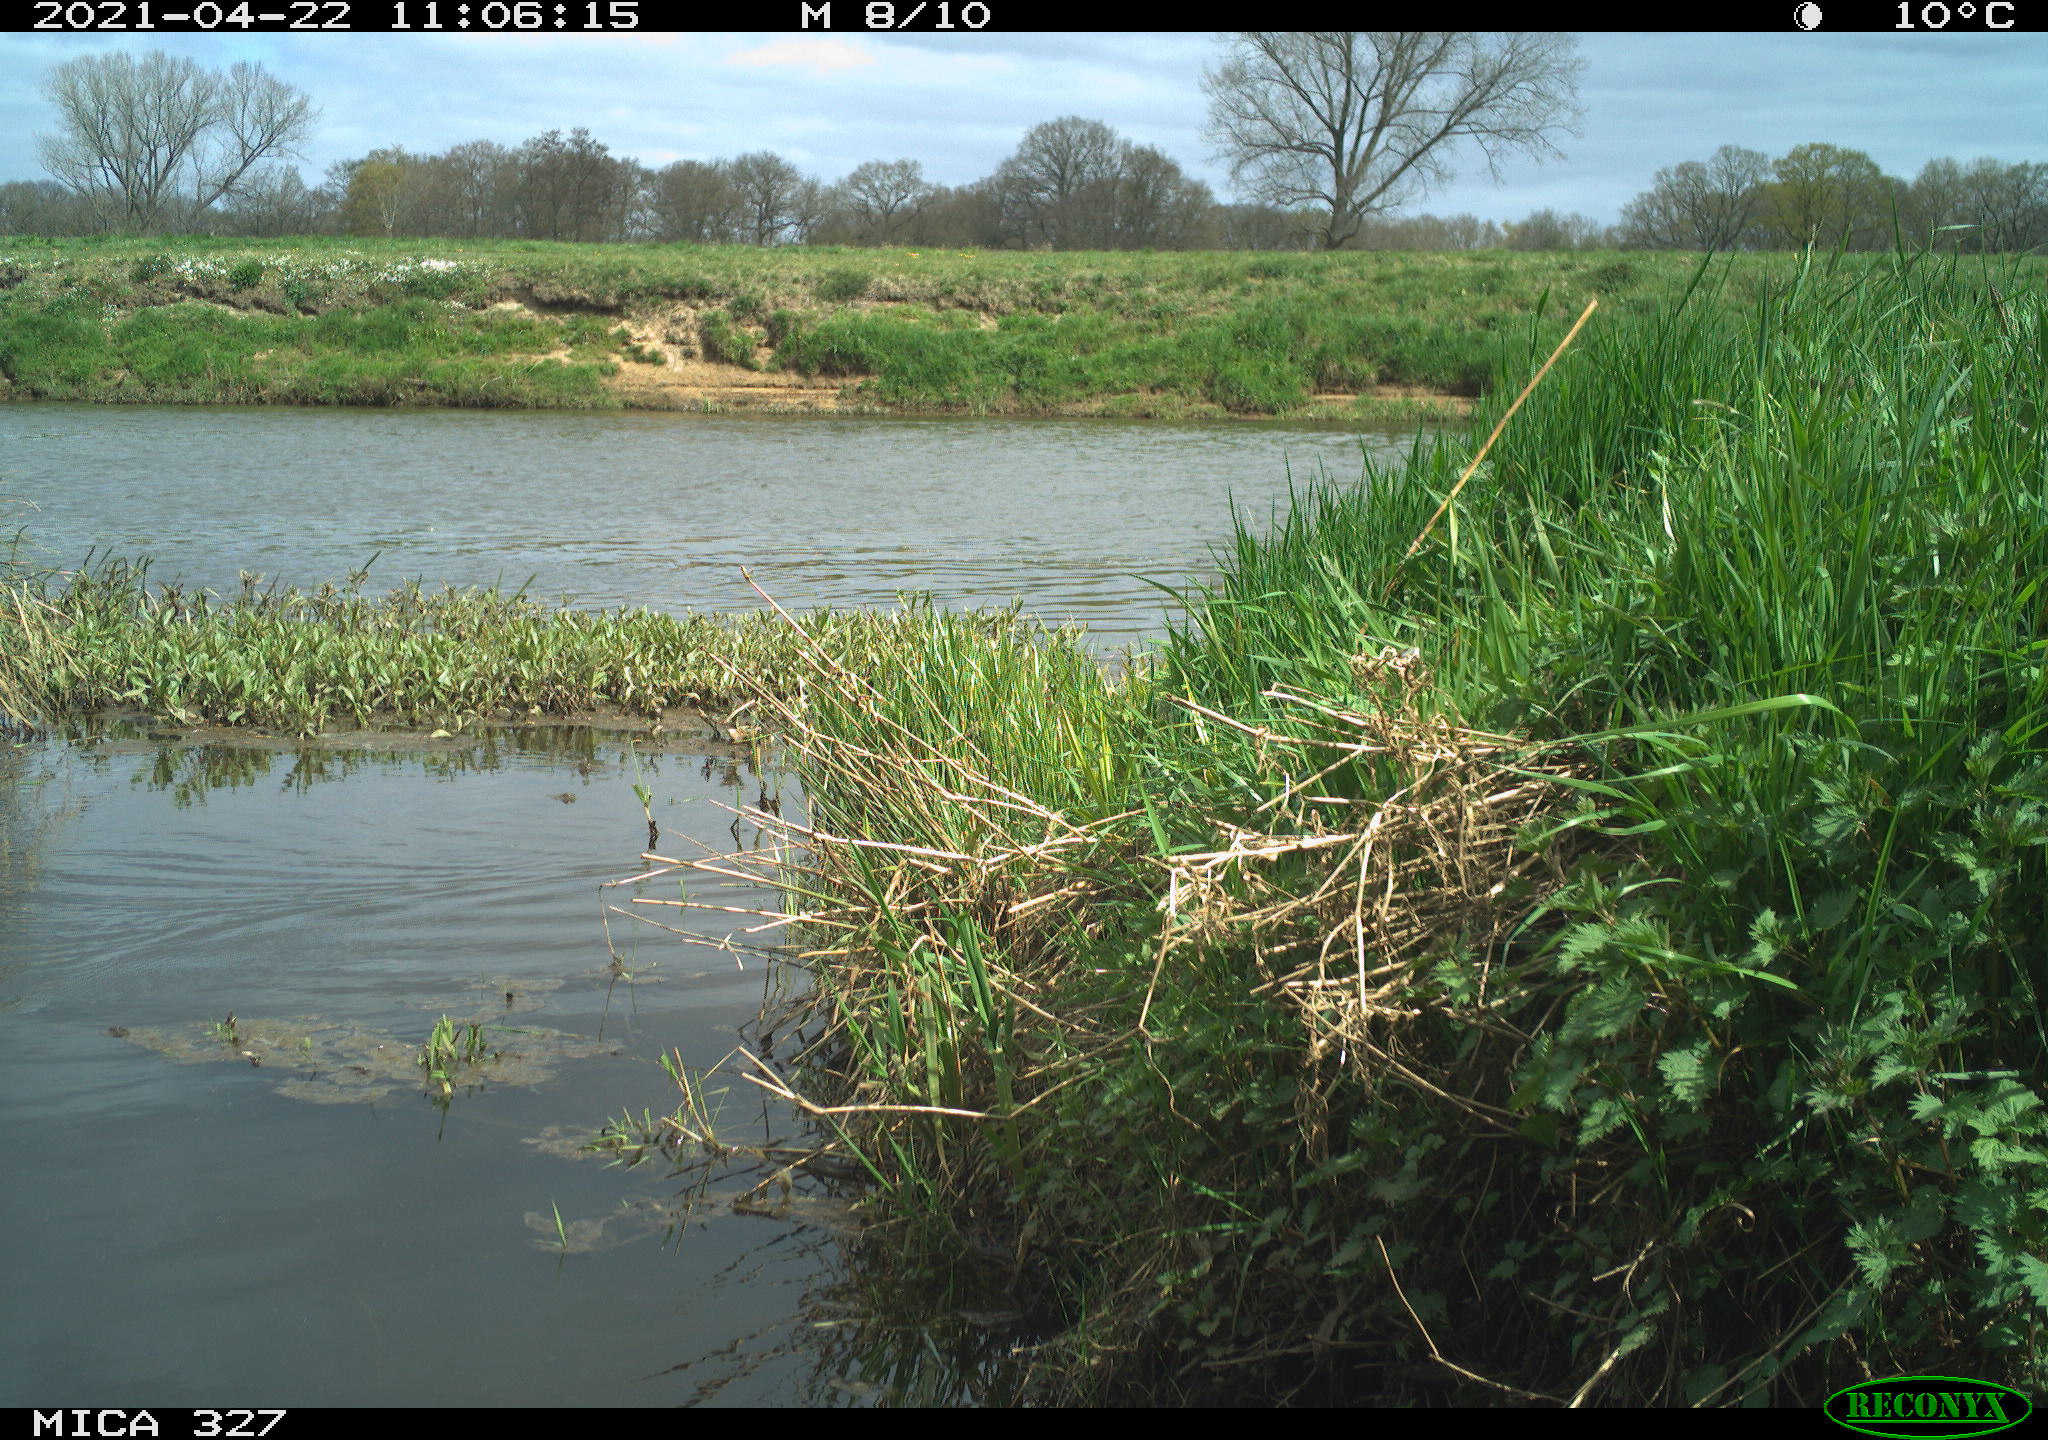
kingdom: Animalia
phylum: Chordata
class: Aves
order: Gruiformes
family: Rallidae
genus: Gallinula
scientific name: Gallinula chloropus
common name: Common moorhen
